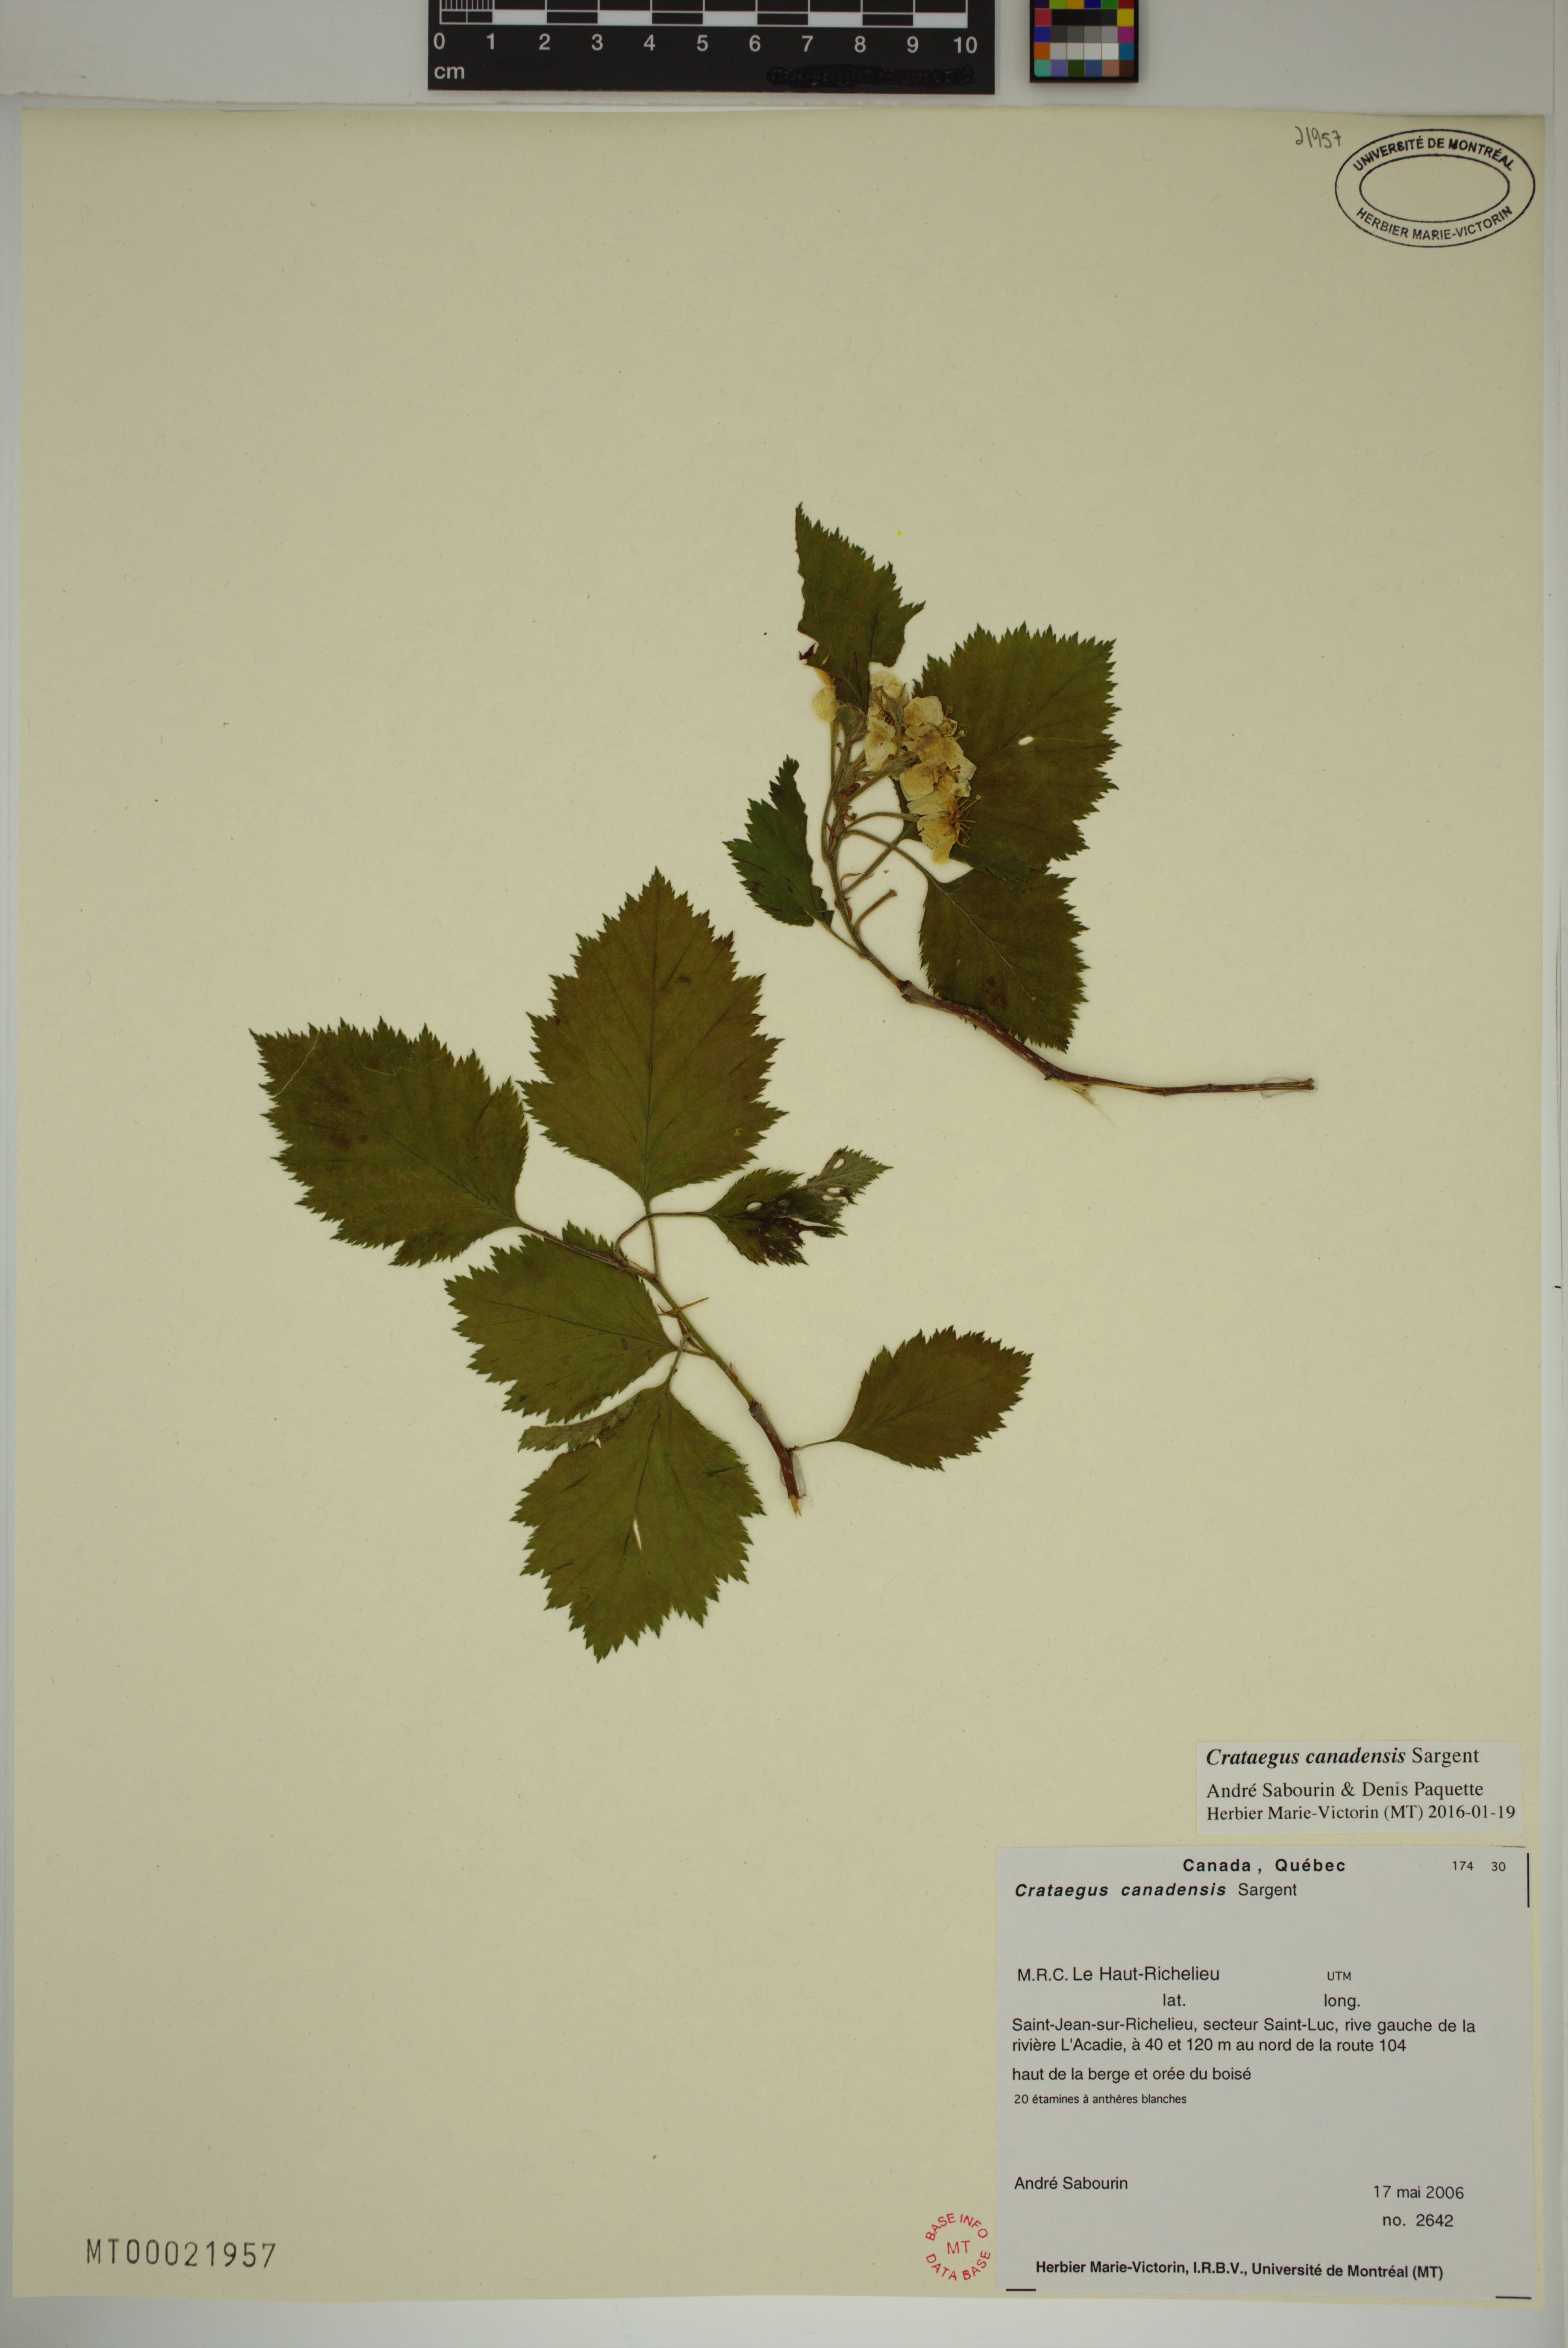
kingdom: Plantae
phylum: Tracheophyta
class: Magnoliopsida
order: Rosales
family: Rosaceae
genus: Crataegus
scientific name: Crataegus submollis
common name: Hairy cockspurthorn
